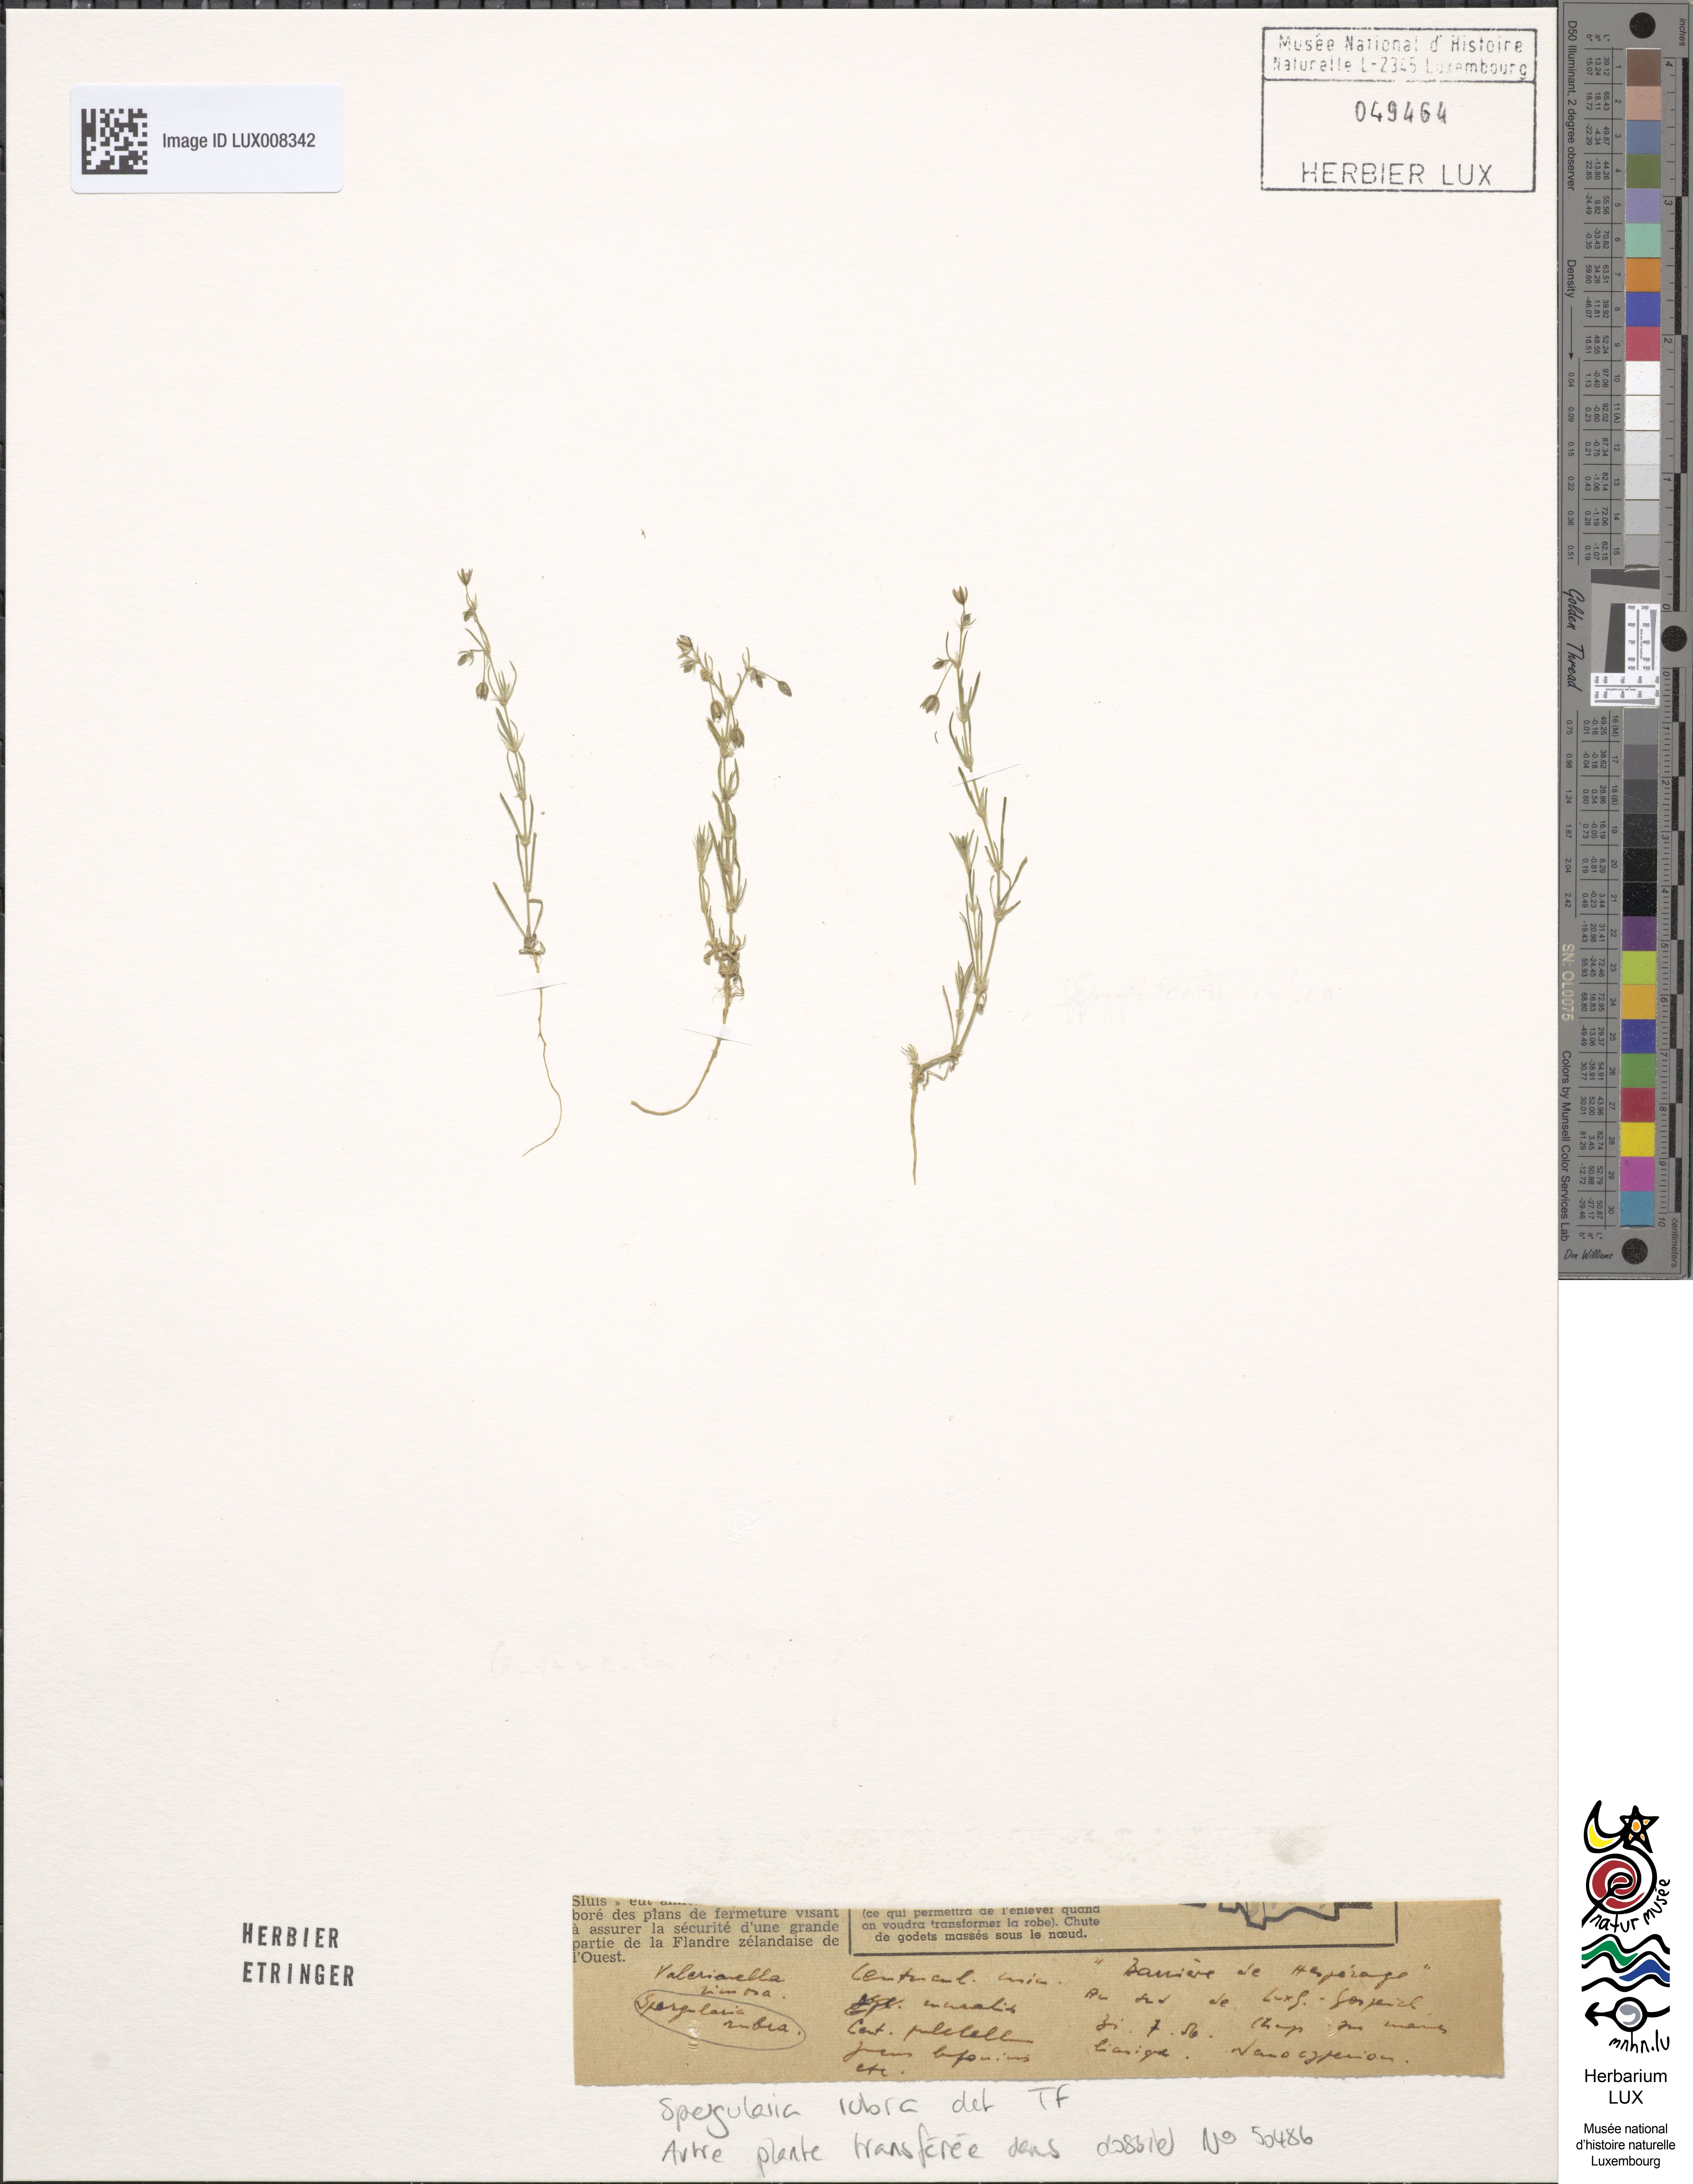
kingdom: Plantae
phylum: Tracheophyta
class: Magnoliopsida
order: Caryophyllales
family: Caryophyllaceae
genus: Spergularia
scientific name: Spergularia rubra
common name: Red sand-spurrey
